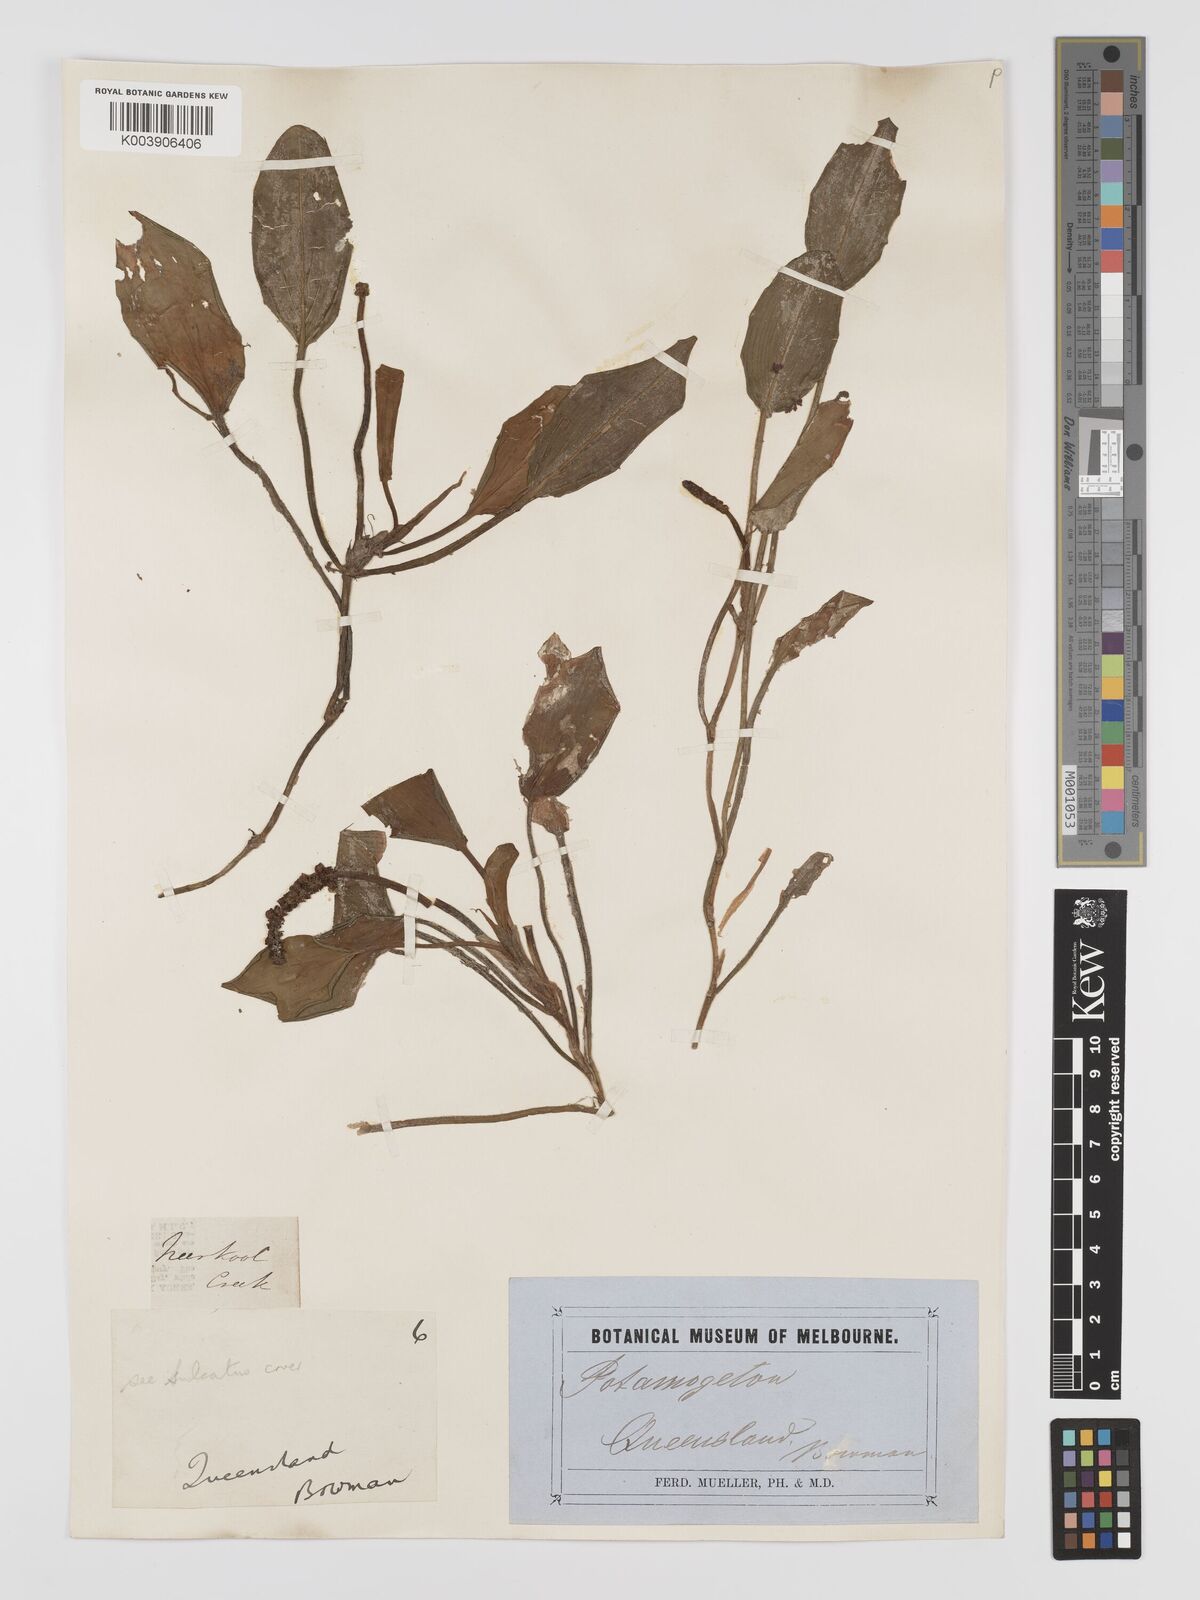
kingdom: Plantae
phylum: Tracheophyta
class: Liliopsida
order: Alismatales
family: Potamogetonaceae
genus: Potamogeton
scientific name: Potamogeton tricarinatus
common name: Pondweed
